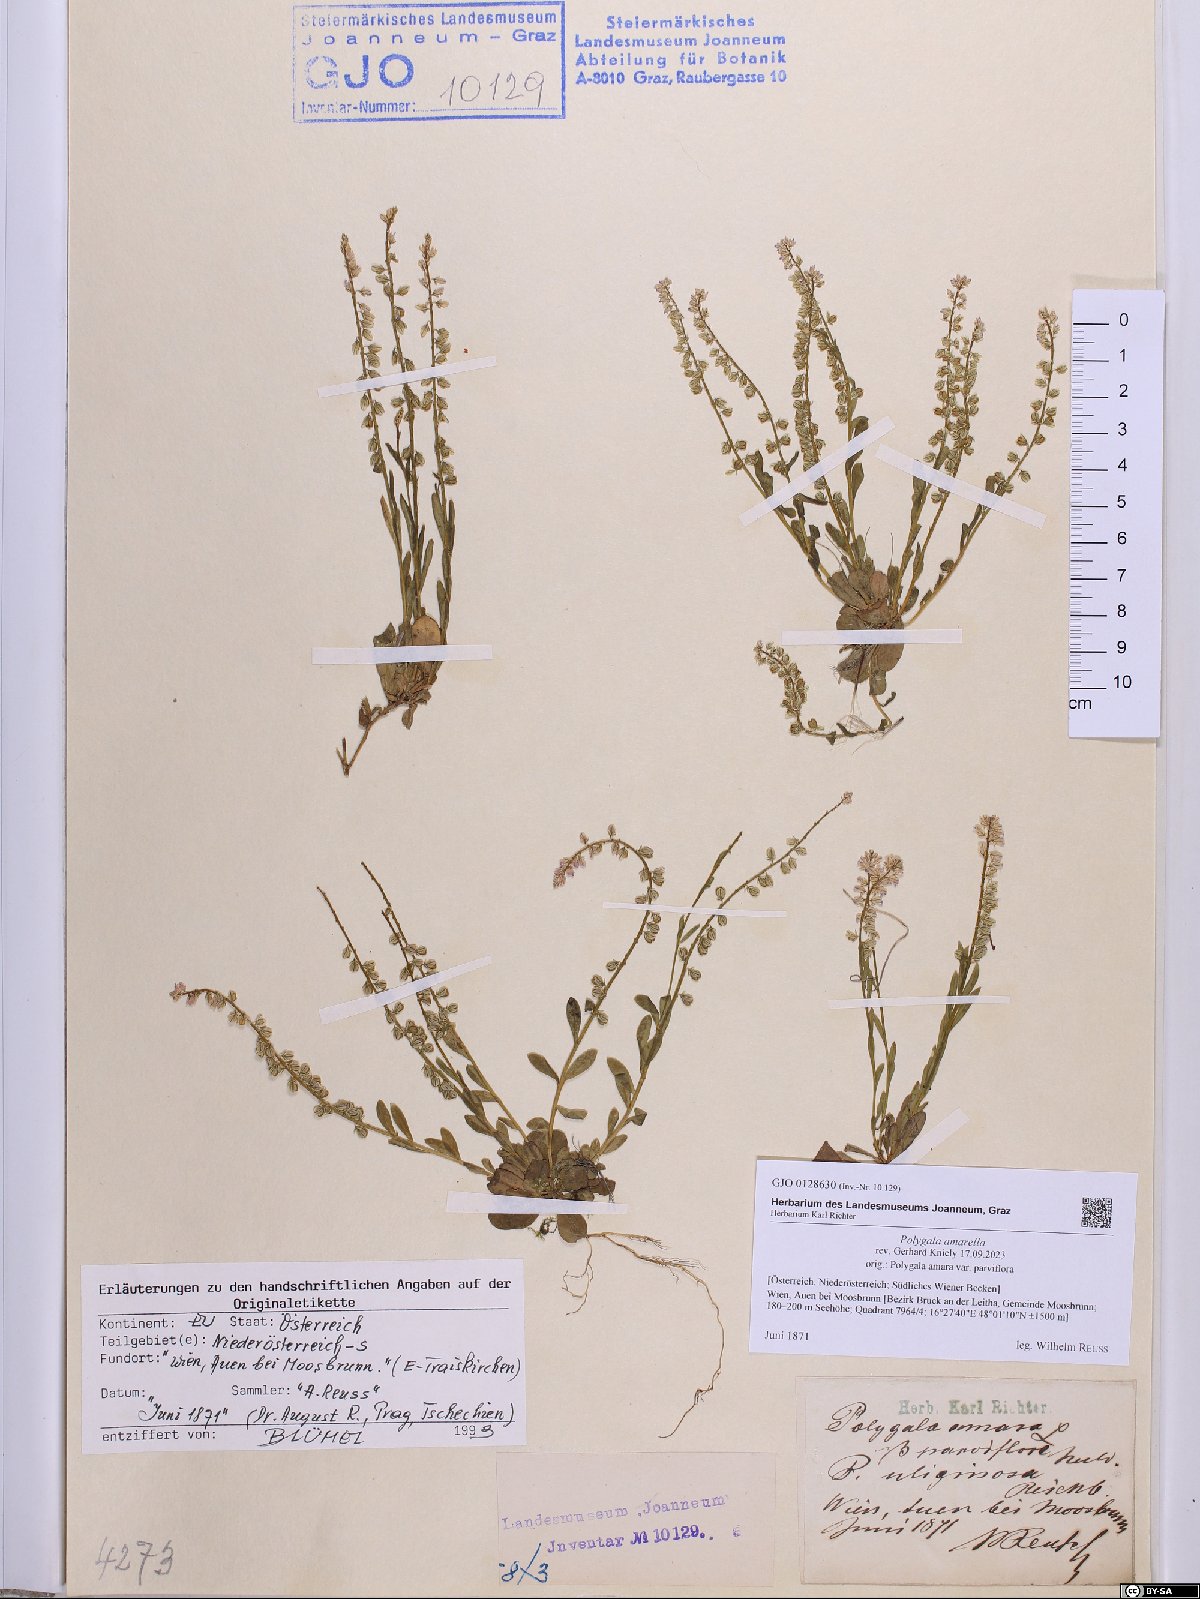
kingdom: Plantae
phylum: Tracheophyta
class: Magnoliopsida
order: Fabales
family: Polygalaceae
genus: Polygala
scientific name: Polygala amarella
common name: Dwarf milkwort
